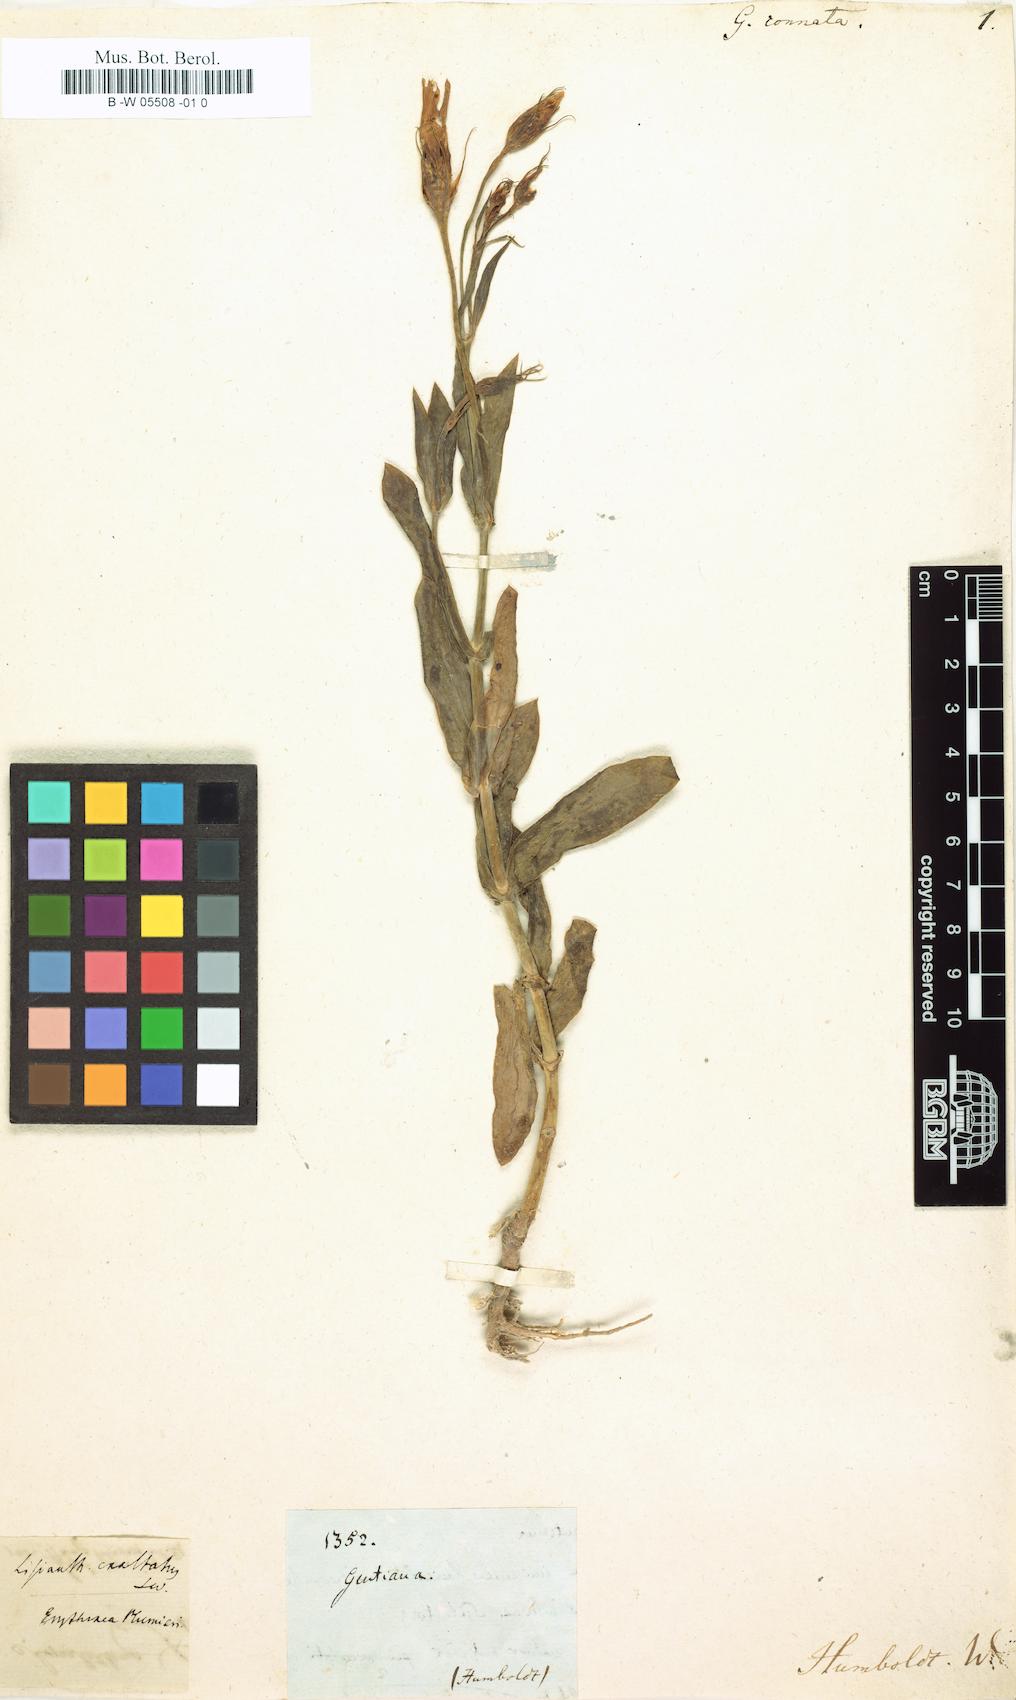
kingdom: Plantae
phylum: Tracheophyta
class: Magnoliopsida
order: Gentianales
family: Gentianaceae
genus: Eustoma
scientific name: Eustoma exaltatum
